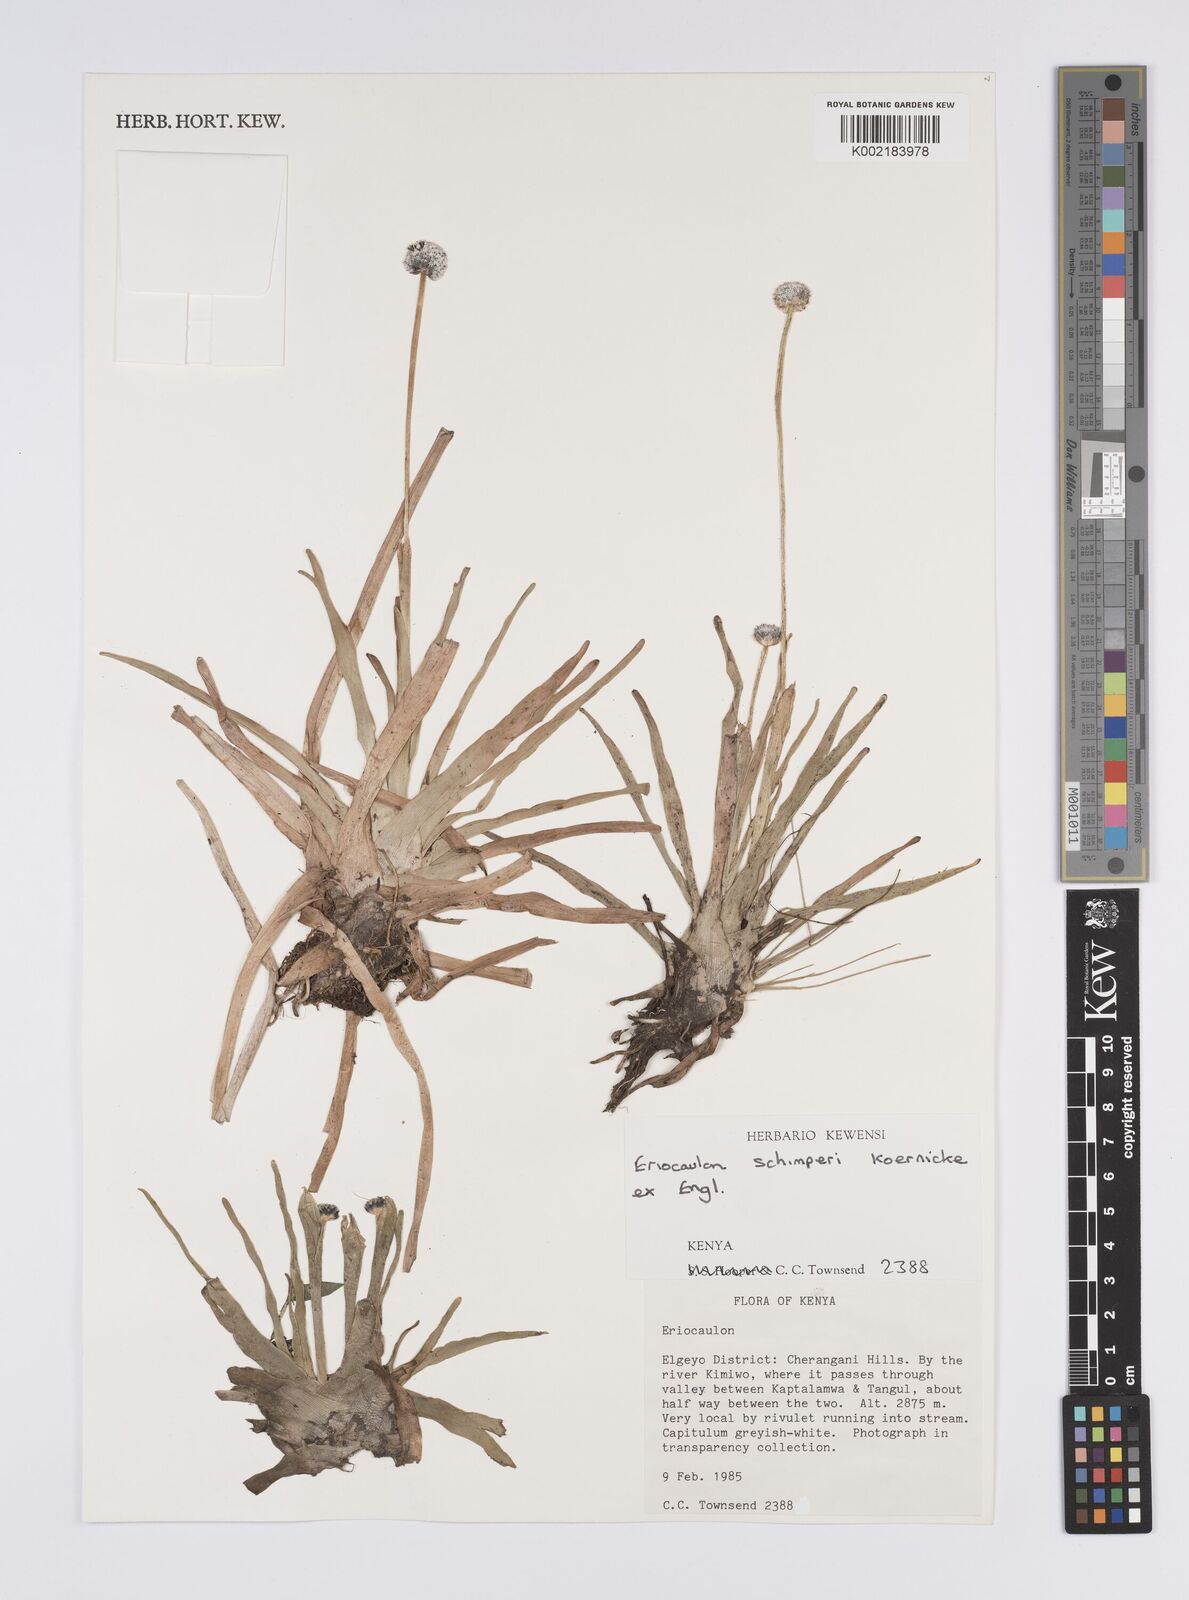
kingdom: Plantae
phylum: Tracheophyta
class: Liliopsida
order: Poales
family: Eriocaulaceae
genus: Eriocaulon
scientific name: Eriocaulon schimperi
